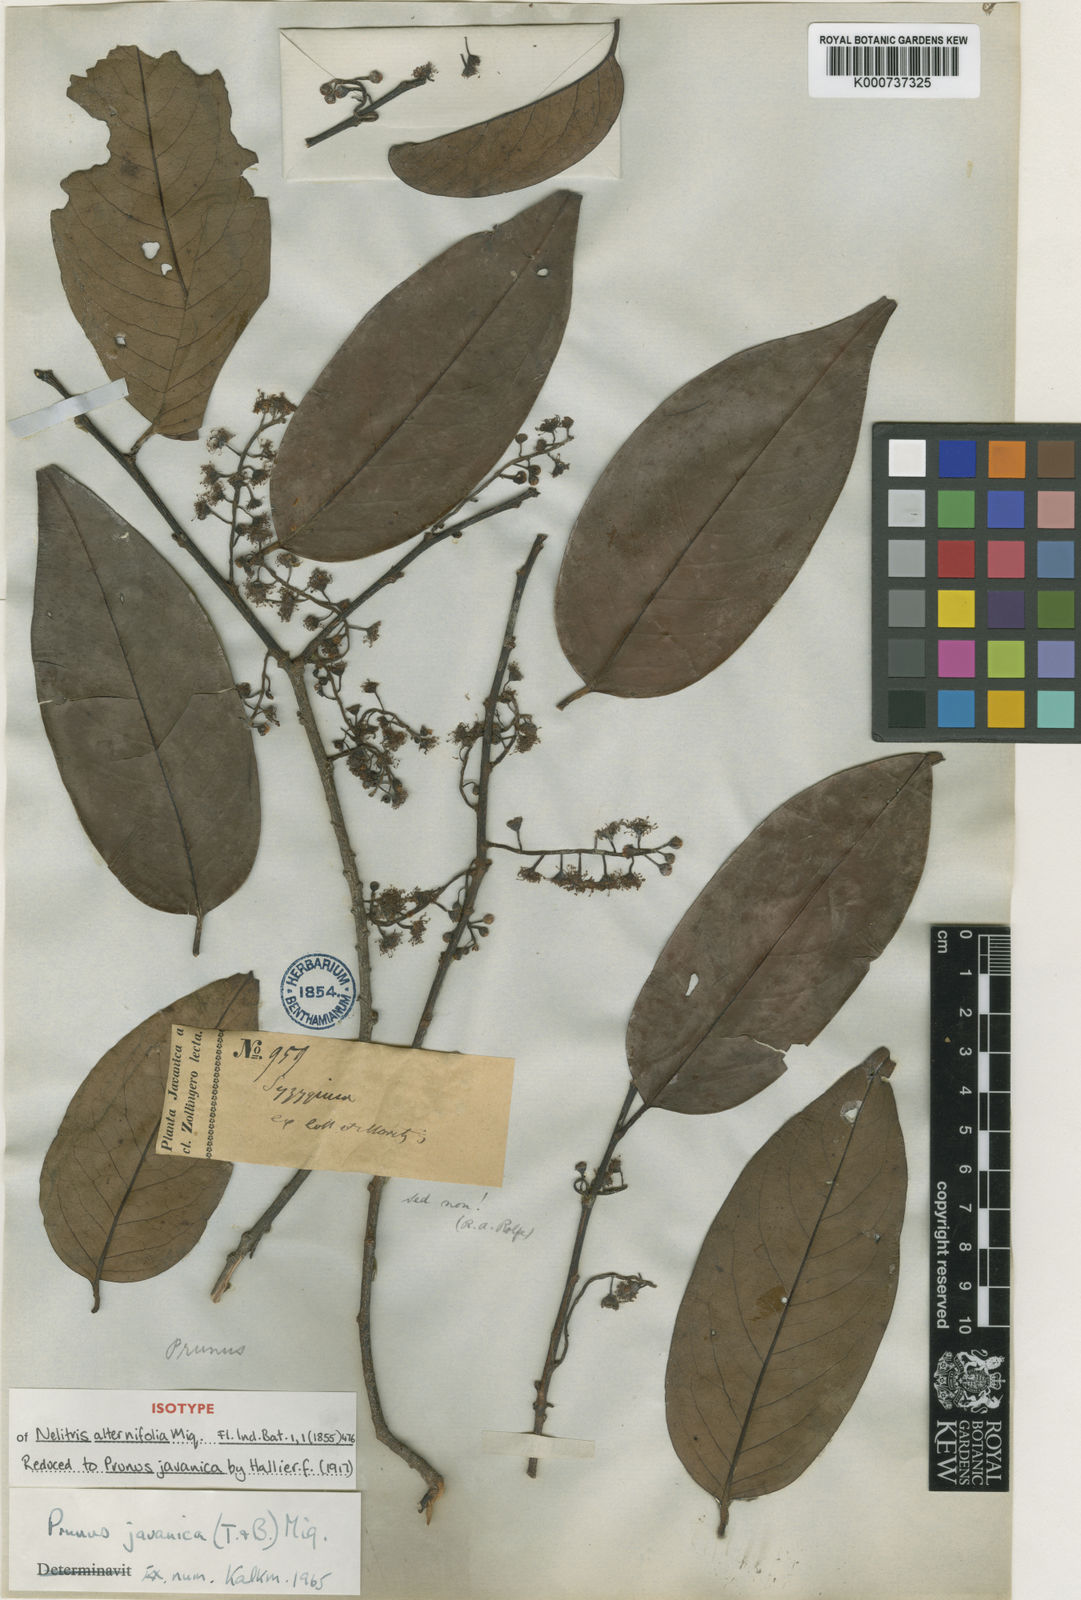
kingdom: Plantae
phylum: Tracheophyta
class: Magnoliopsida
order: Rosales
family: Rosaceae
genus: Prunus
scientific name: Prunus javanica
